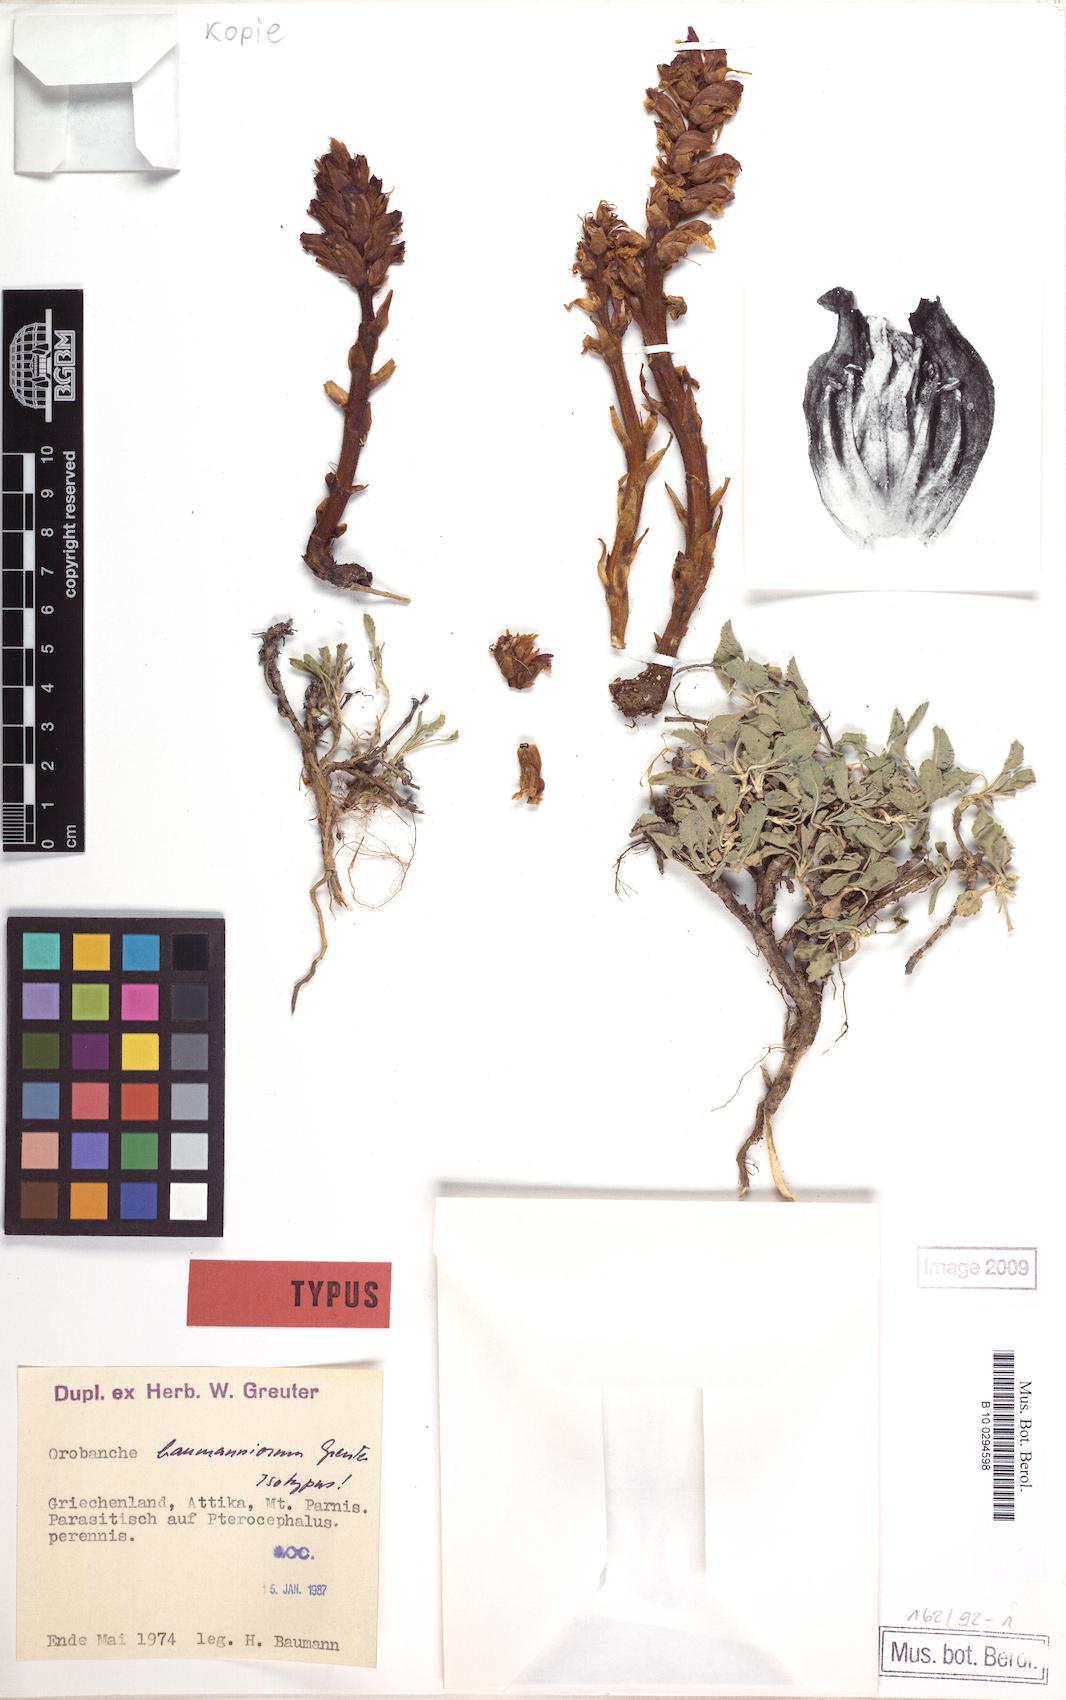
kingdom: Plantae
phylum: Tracheophyta
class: Magnoliopsida
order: Lamiales
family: Orobanchaceae
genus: Orobanche
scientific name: Orobanche baumanniorum
